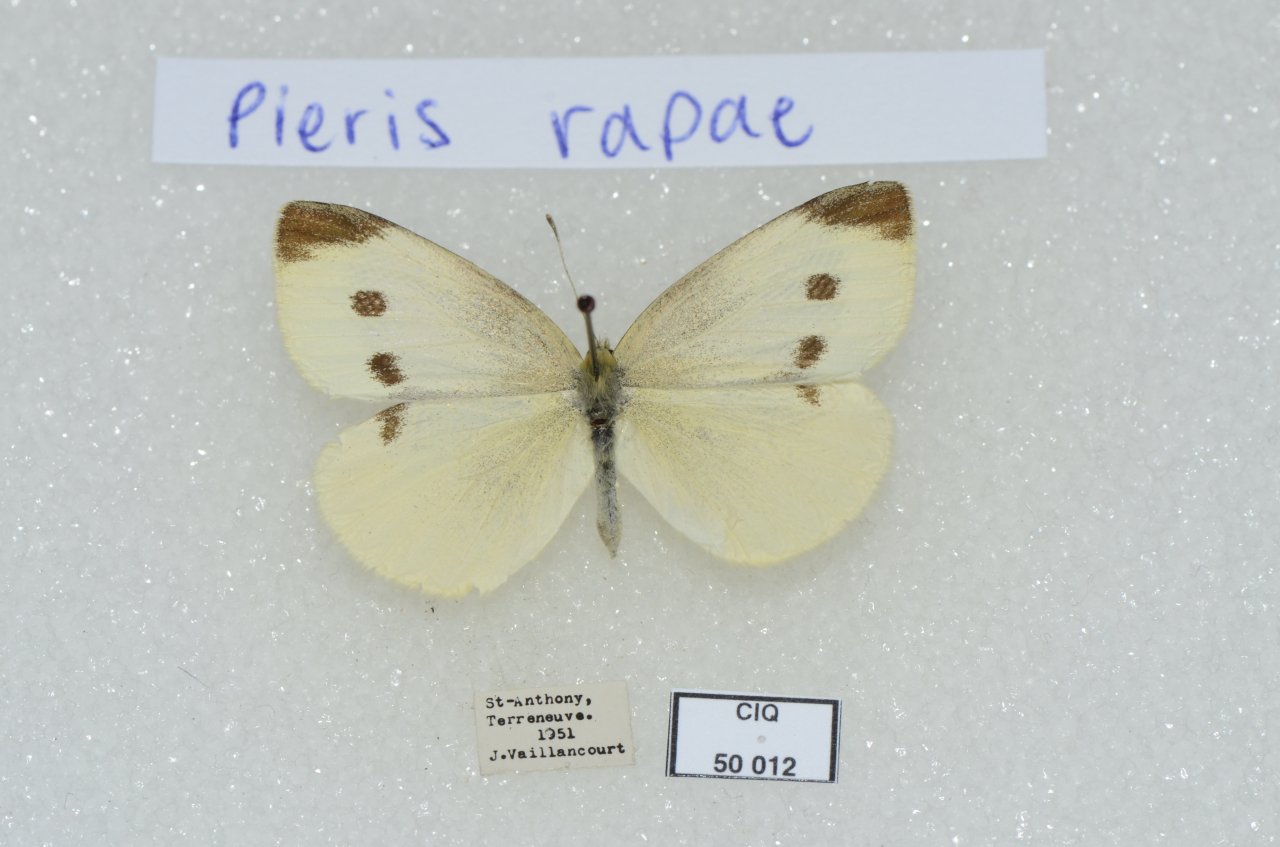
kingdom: Animalia
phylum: Arthropoda
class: Insecta
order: Lepidoptera
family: Pieridae
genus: Pieris
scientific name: Pieris rapae
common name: Cabbage White
